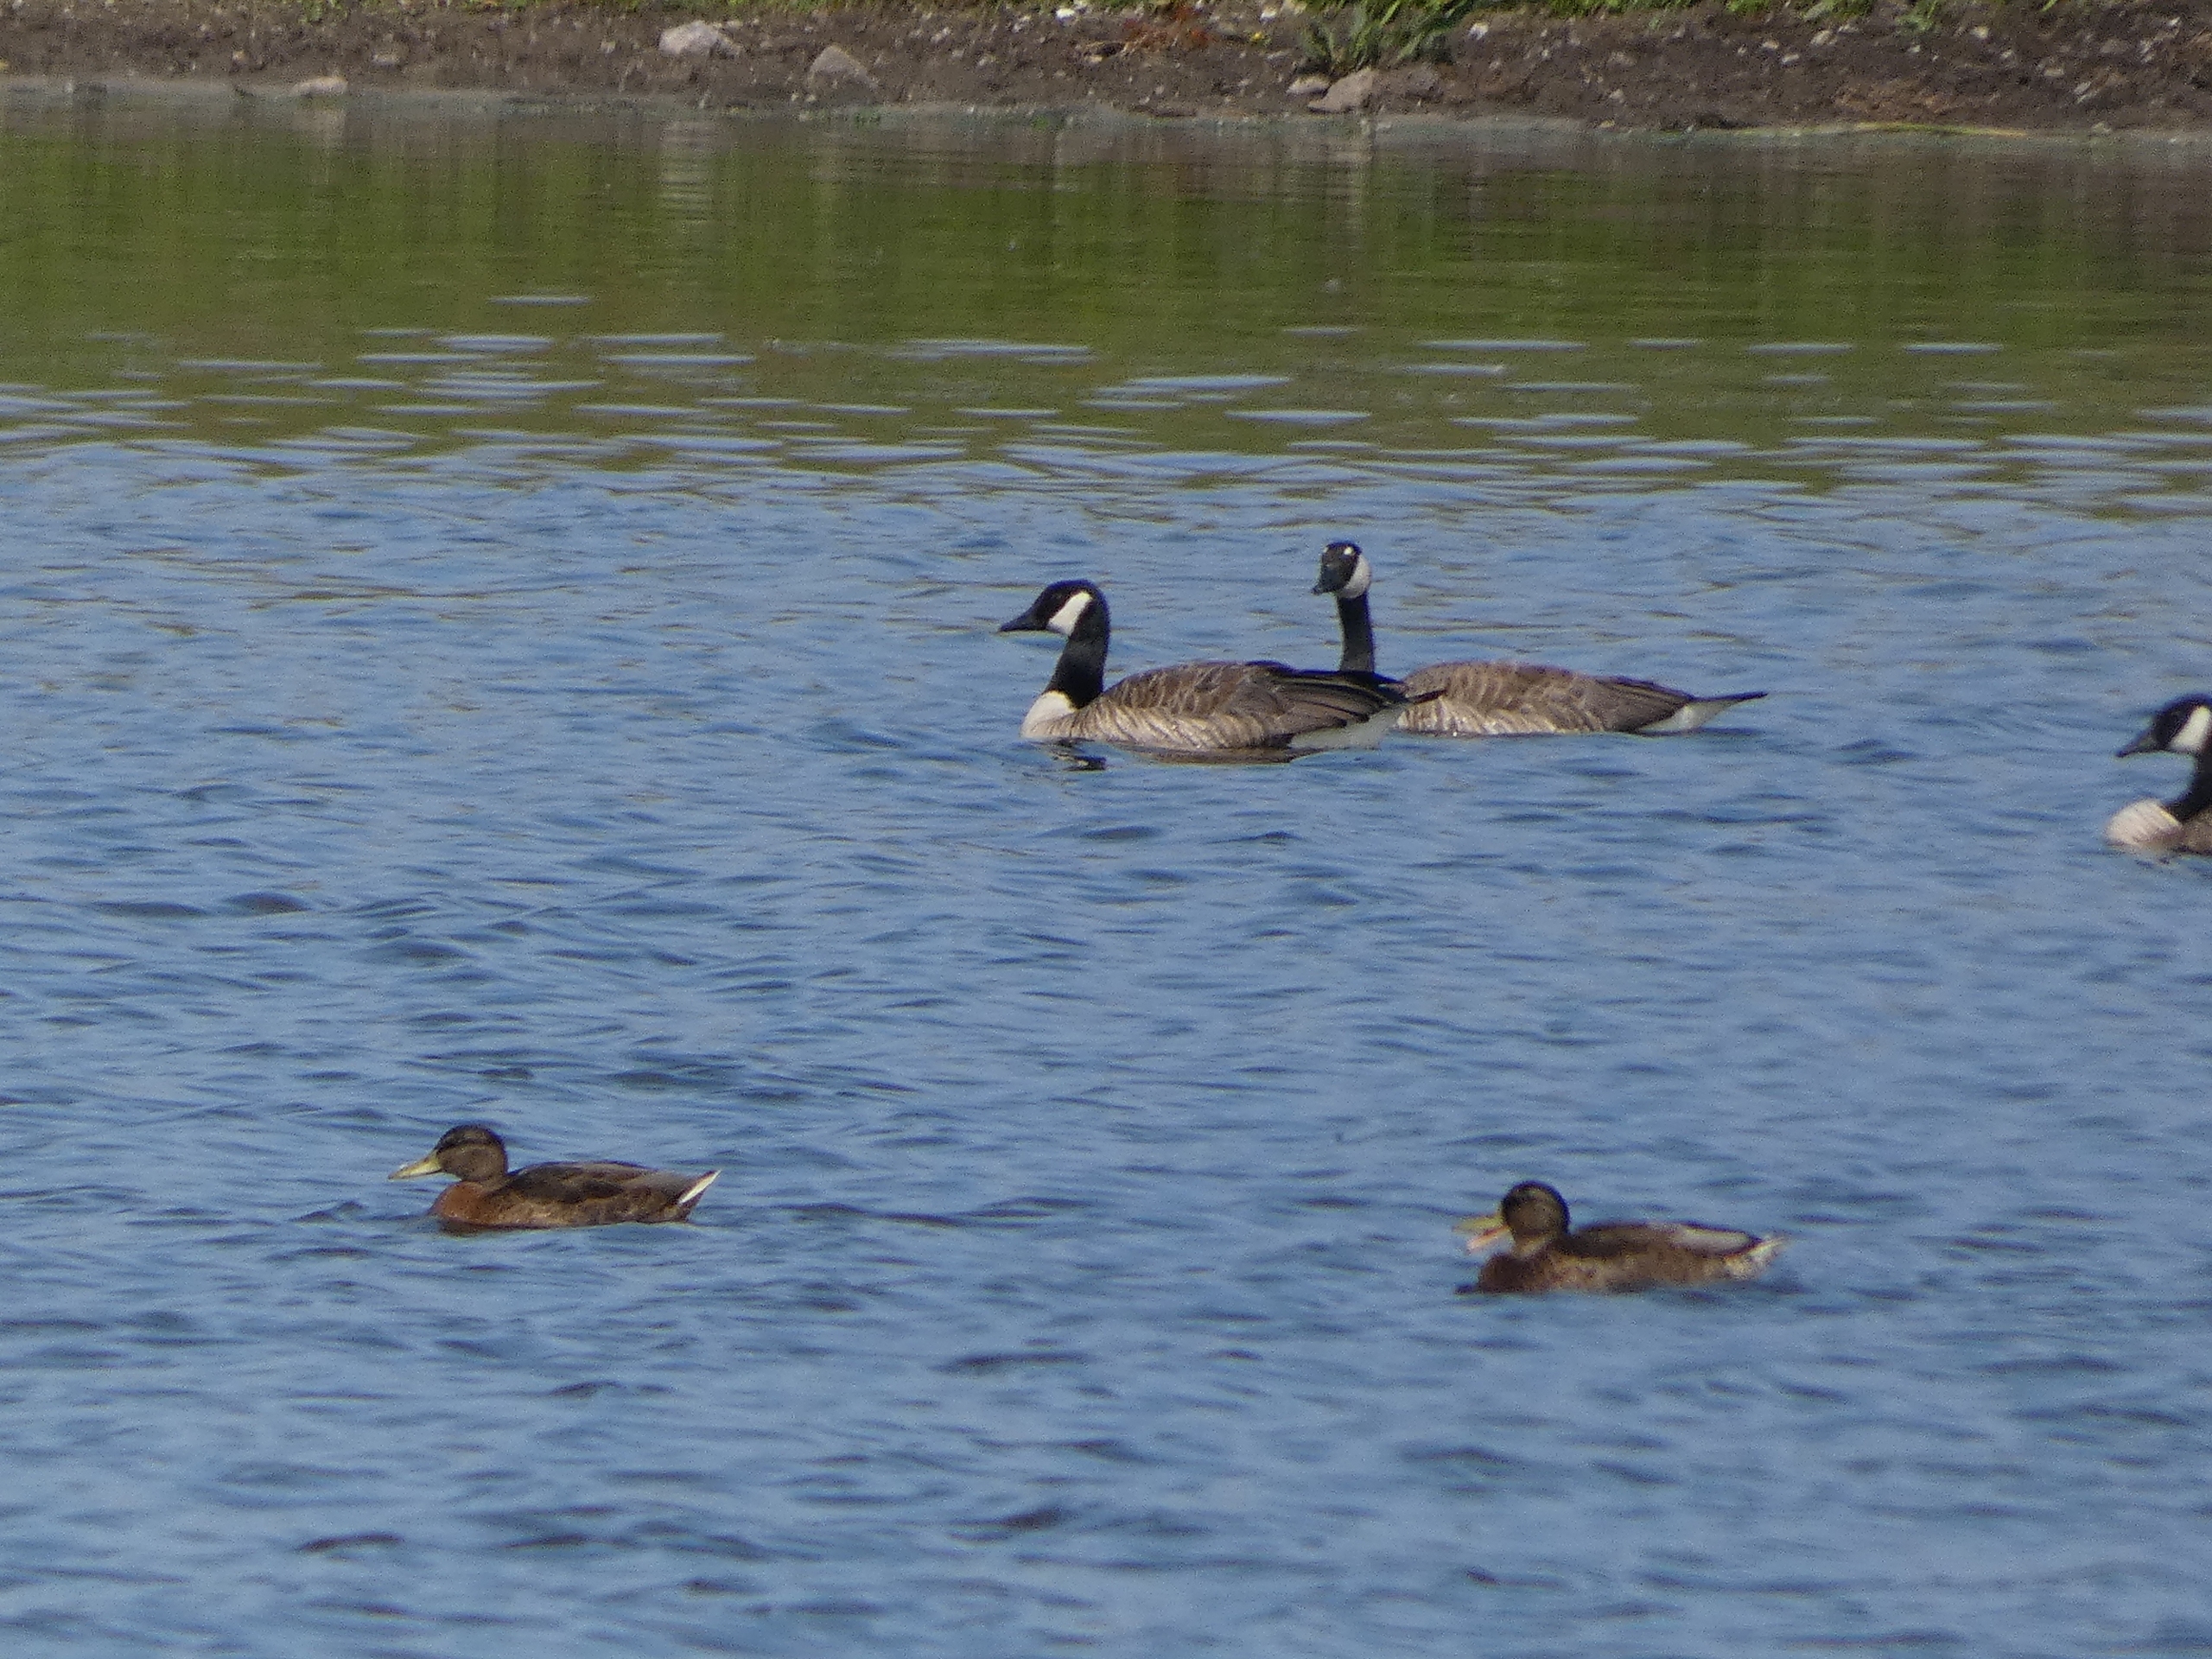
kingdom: Animalia
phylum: Chordata
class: Aves
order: Anseriformes
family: Anatidae
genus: Branta
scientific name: Branta canadensis
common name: Canadagås
